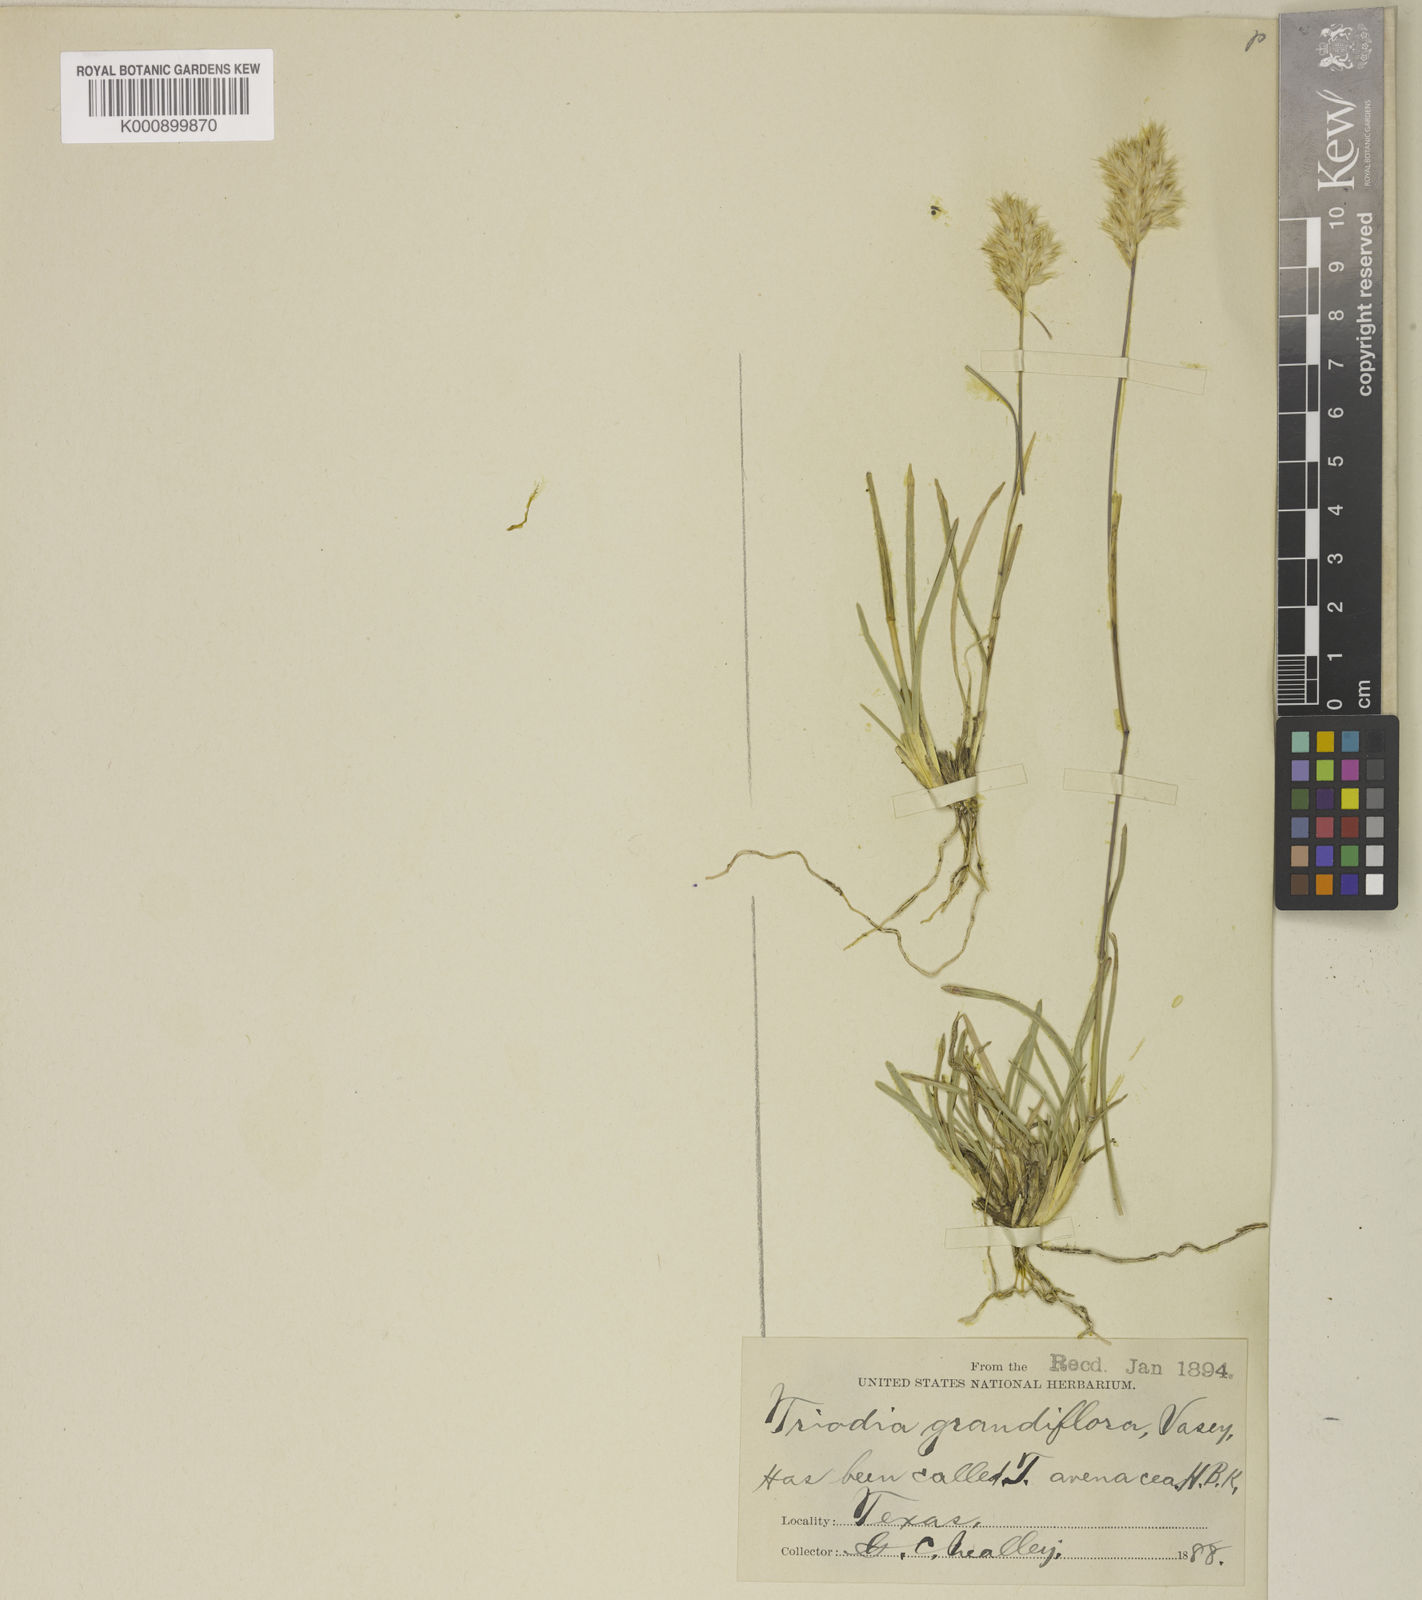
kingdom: Plantae
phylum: Tracheophyta
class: Liliopsida
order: Poales
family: Poaceae
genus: Erioneuron
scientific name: Erioneuron avenaceum
